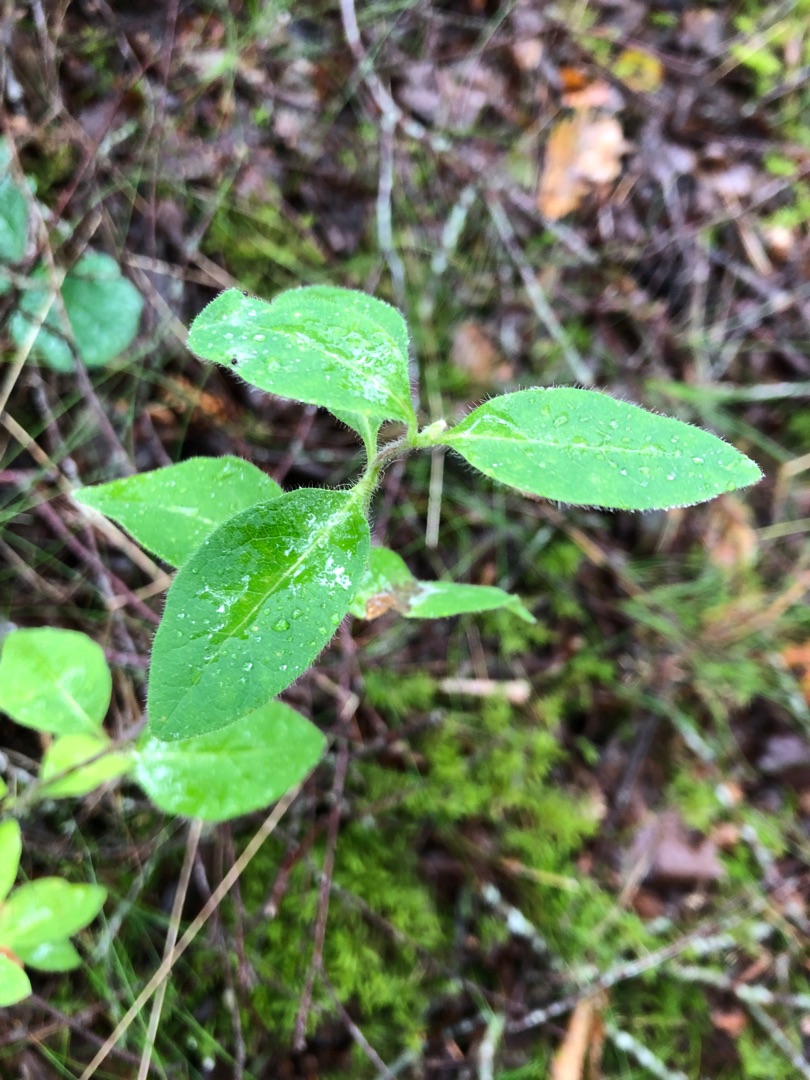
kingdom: Plantae
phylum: Tracheophyta
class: Magnoliopsida
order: Dipsacales
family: Caprifoliaceae
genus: Lonicera
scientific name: Lonicera periclymenum
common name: Almindelig gedeblad
